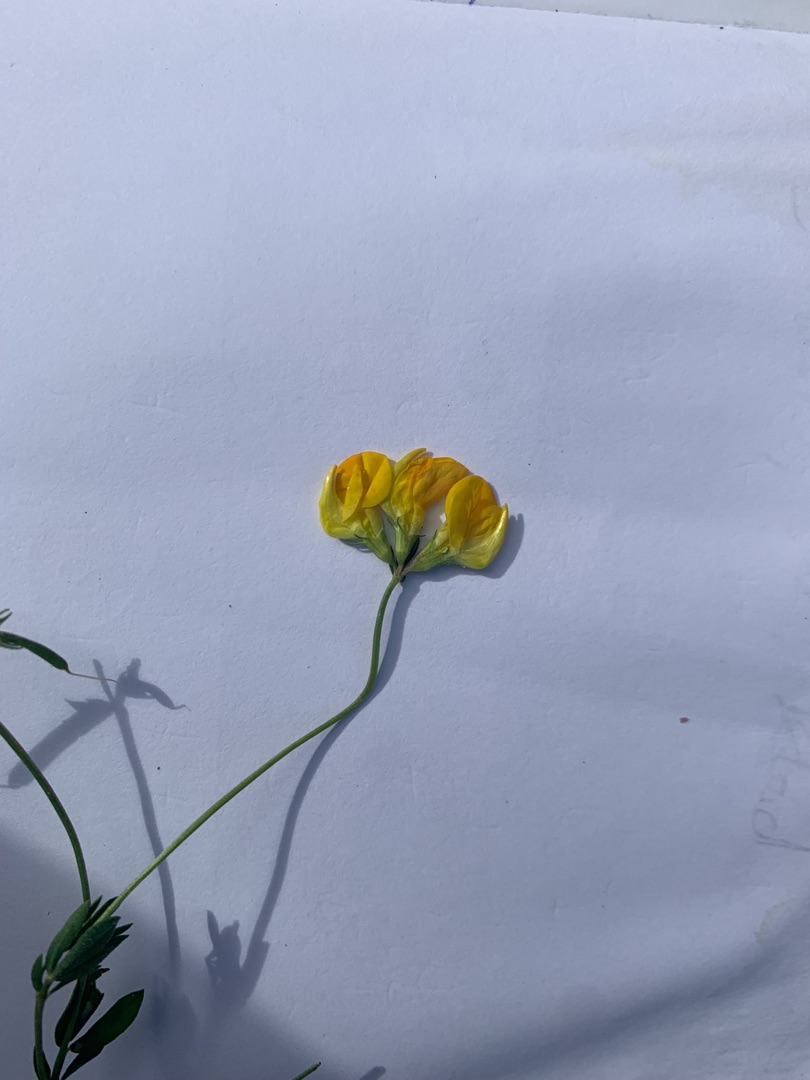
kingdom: Plantae
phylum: Tracheophyta
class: Magnoliopsida
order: Fabales
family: Fabaceae
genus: Lotus
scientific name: Lotus corniculatus
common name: Almindelig kællingetand
